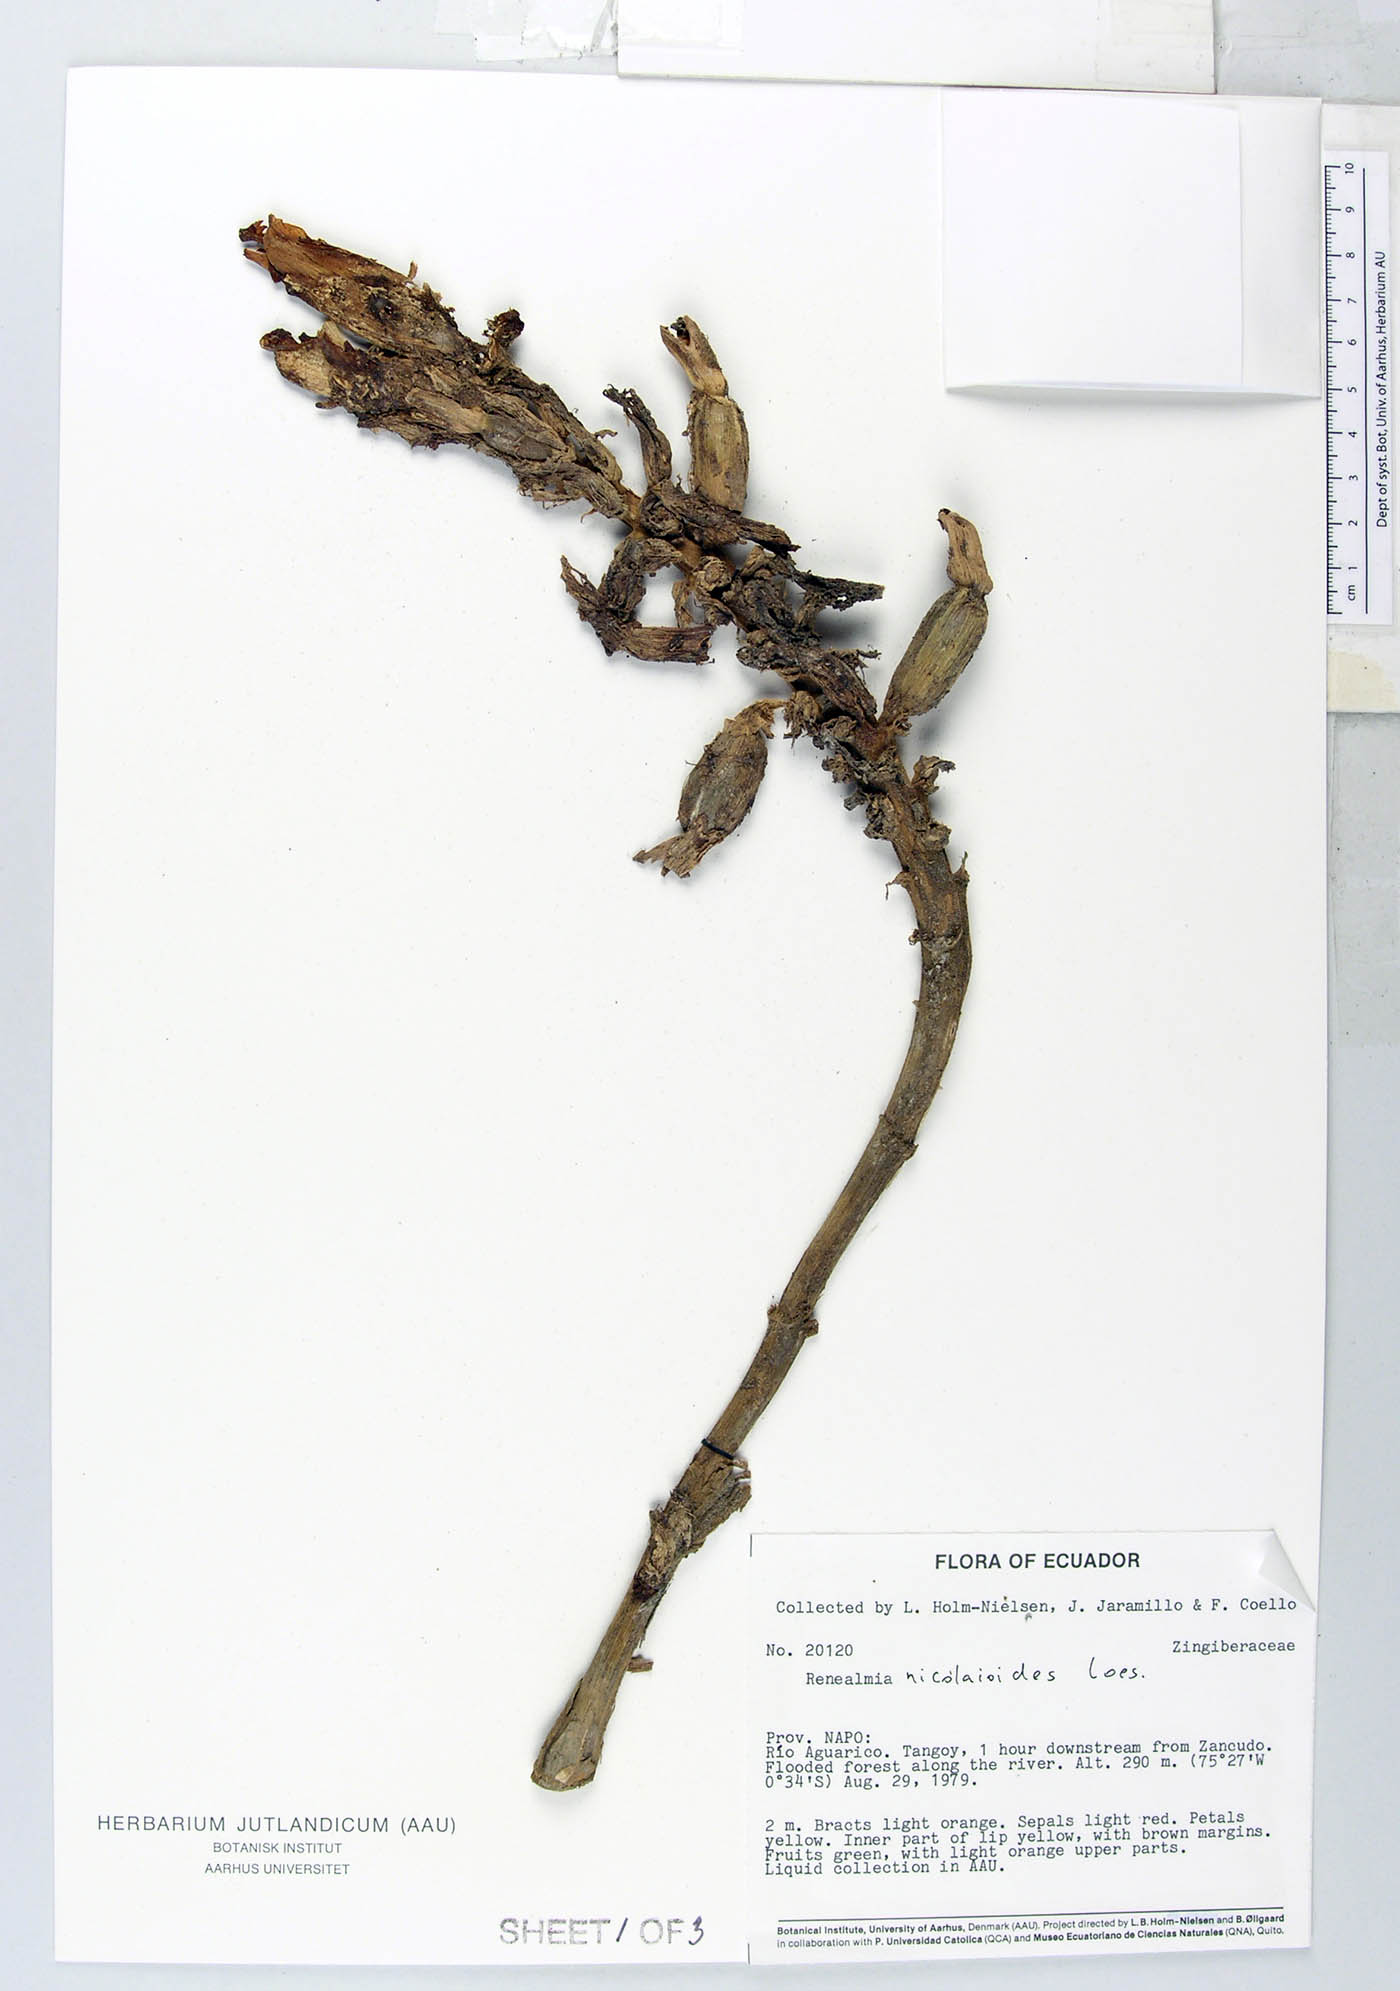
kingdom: Plantae
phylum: Tracheophyta
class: Liliopsida
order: Zingiberales
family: Zingiberaceae
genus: Renealmia
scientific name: Renealmia nicolaioides
